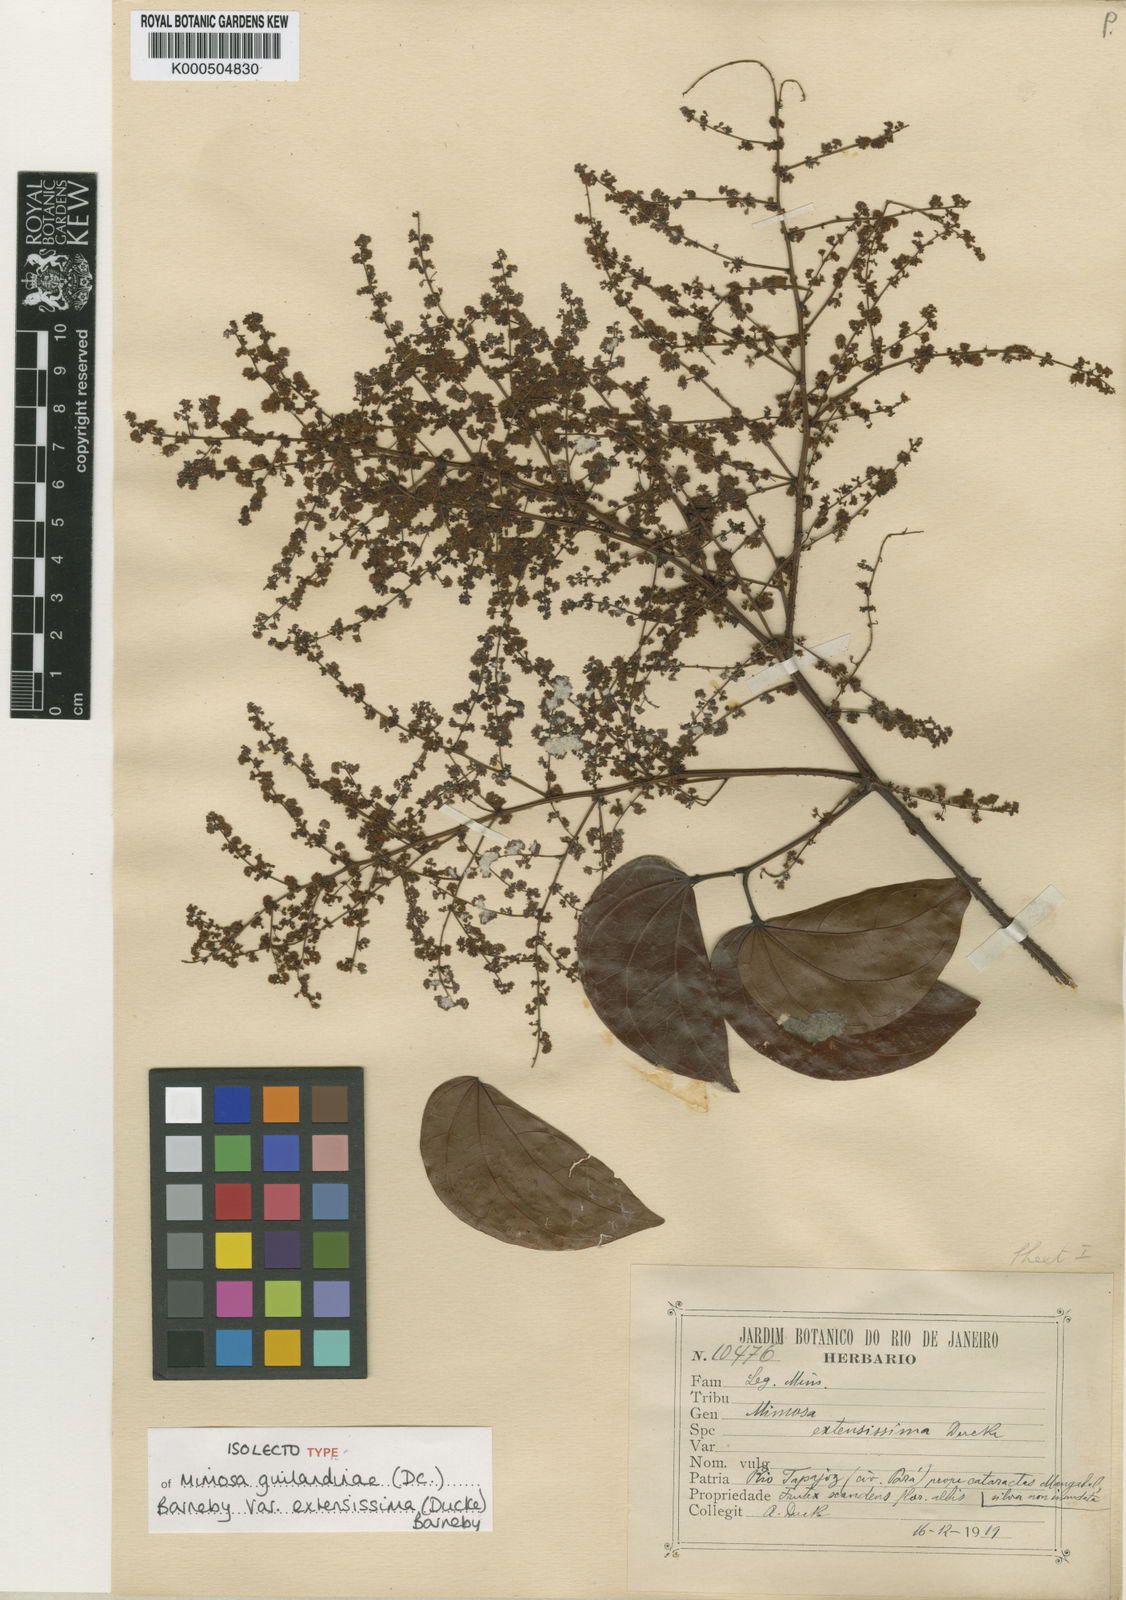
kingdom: Plantae
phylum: Tracheophyta
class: Magnoliopsida
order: Fabales
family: Fabaceae
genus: Mimosa
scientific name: Mimosa guilandinae
